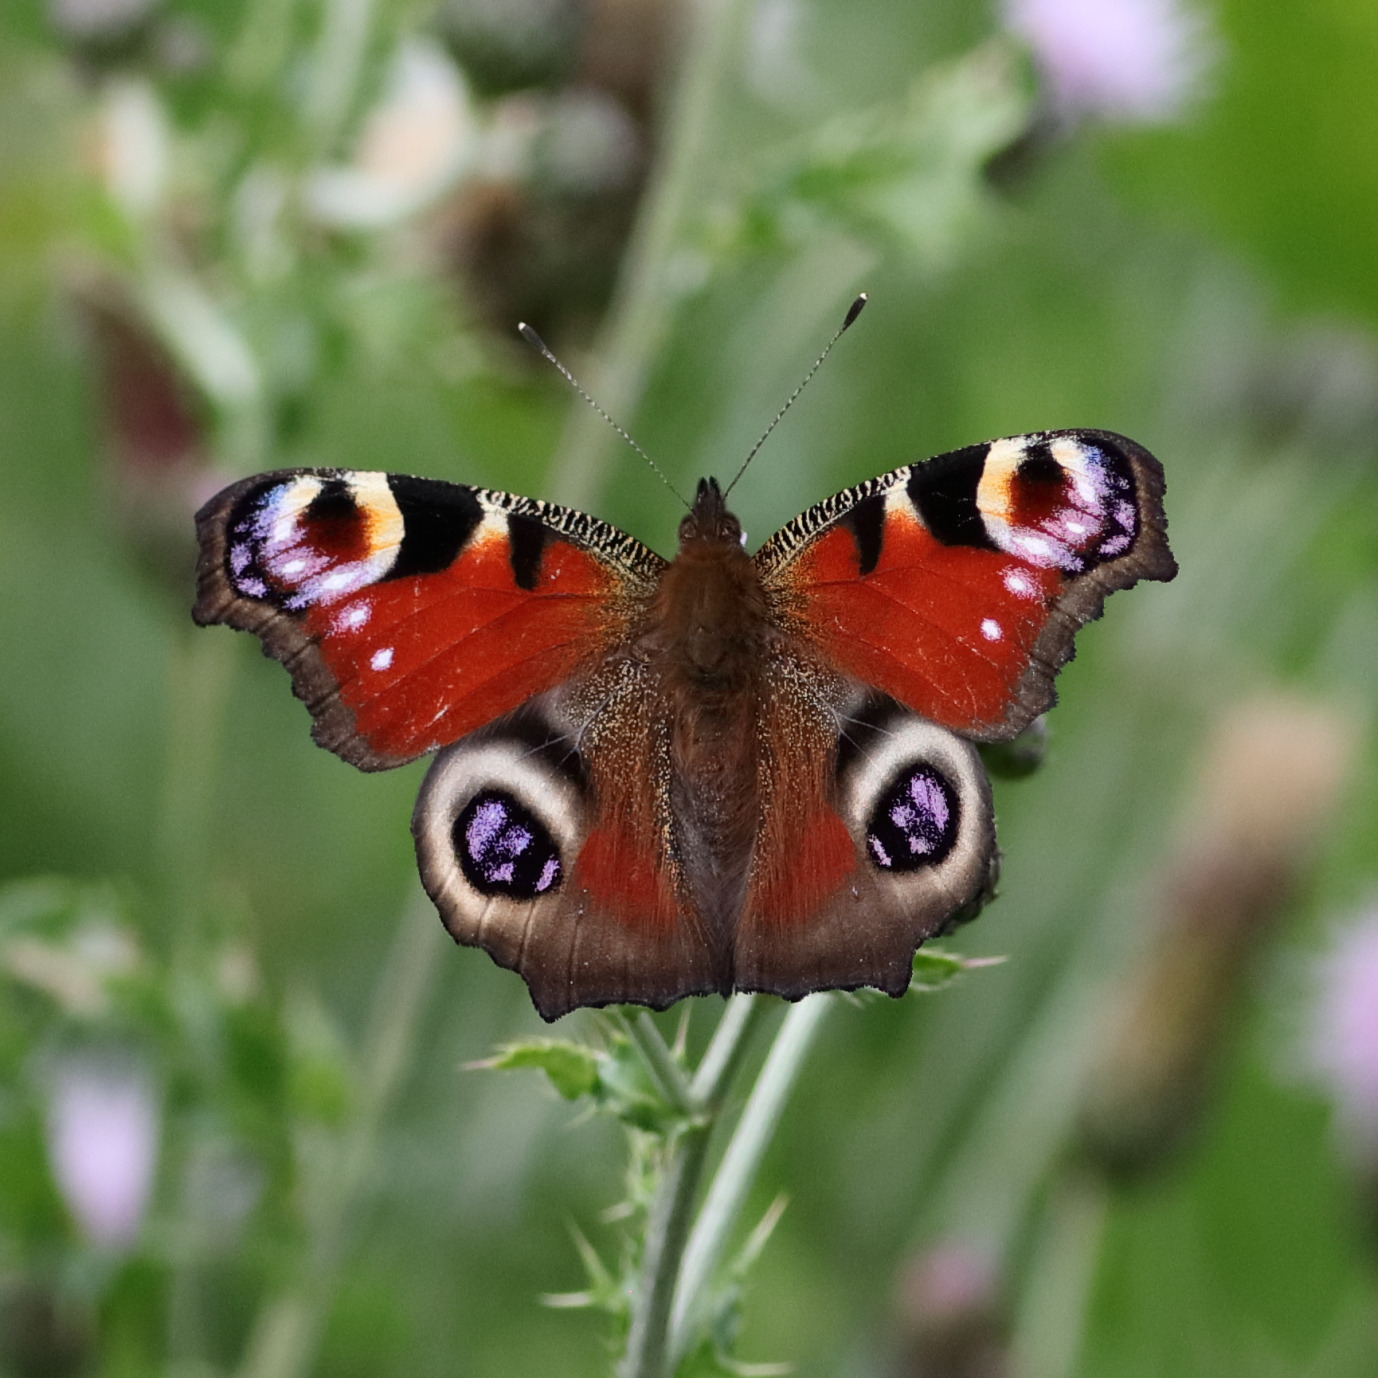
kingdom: Animalia
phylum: Arthropoda
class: Insecta
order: Lepidoptera
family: Nymphalidae
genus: Aglais
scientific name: Aglais io
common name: Dagpåfugleøje
